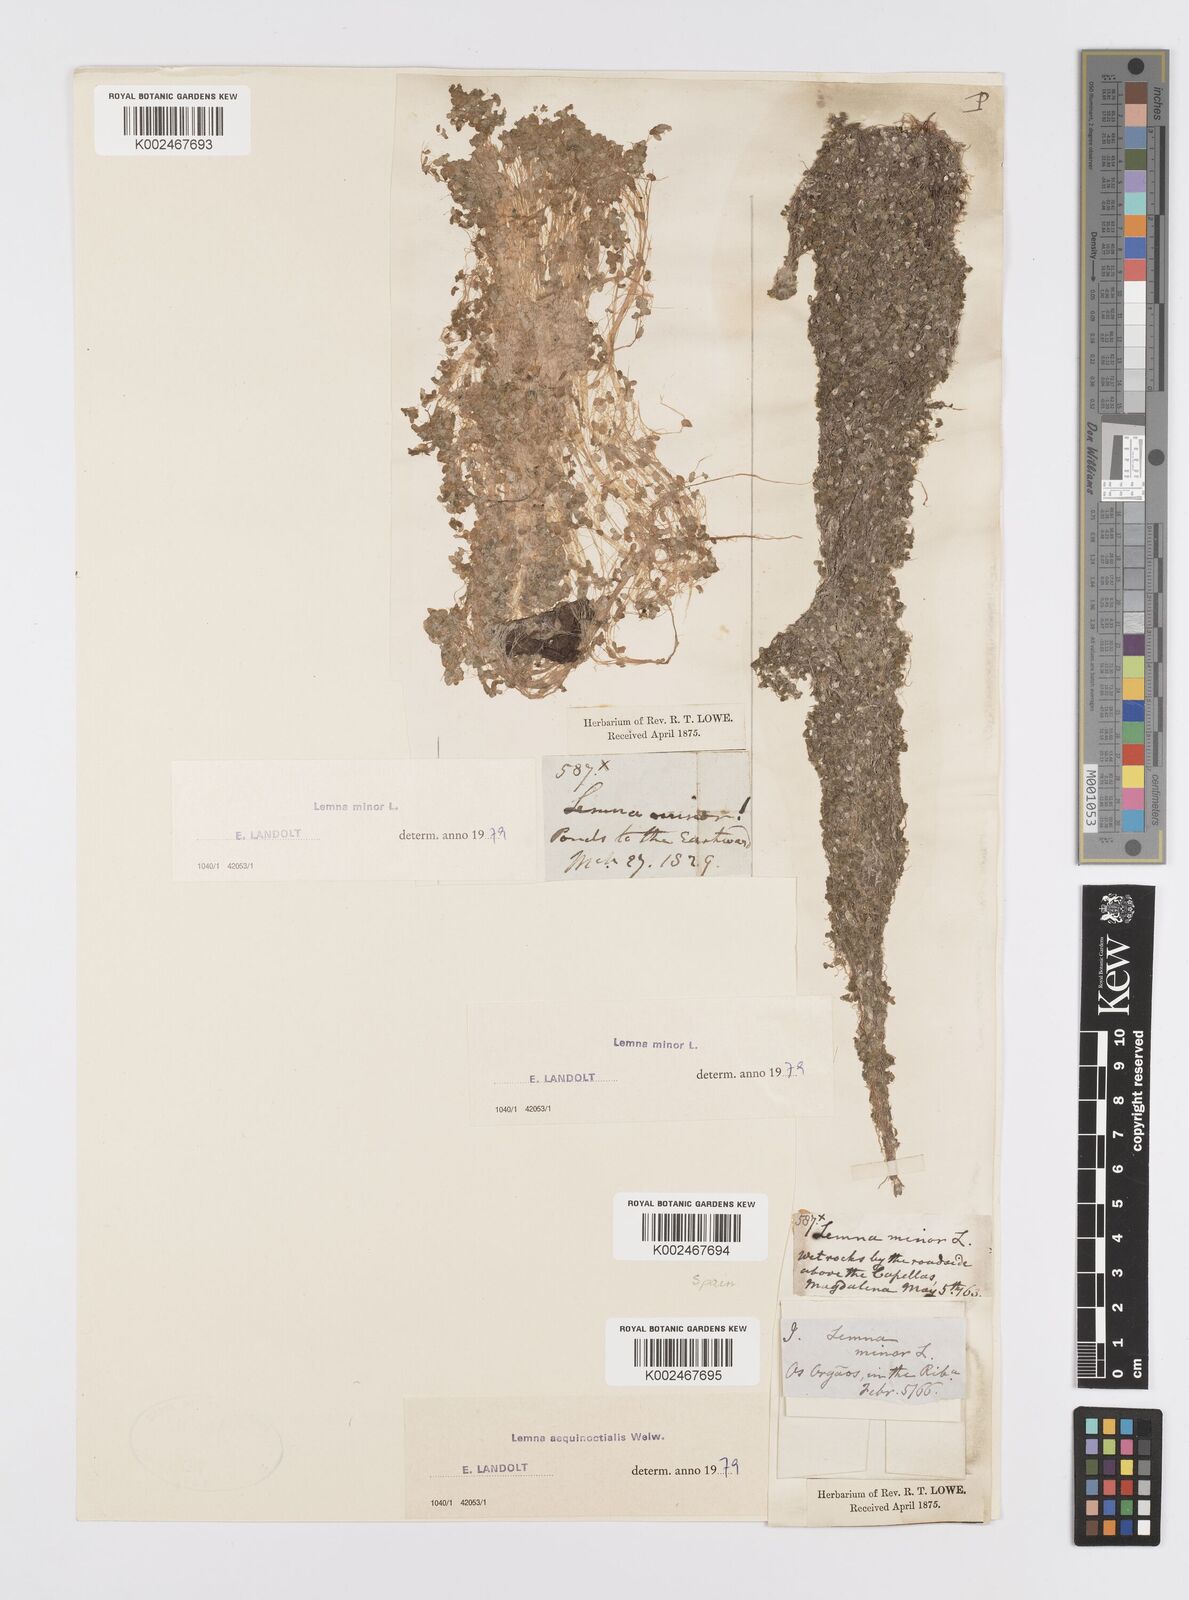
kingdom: Plantae
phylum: Tracheophyta
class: Liliopsida
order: Alismatales
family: Araceae
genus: Lemna
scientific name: Lemna aequinoctialis
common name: Duckweed
